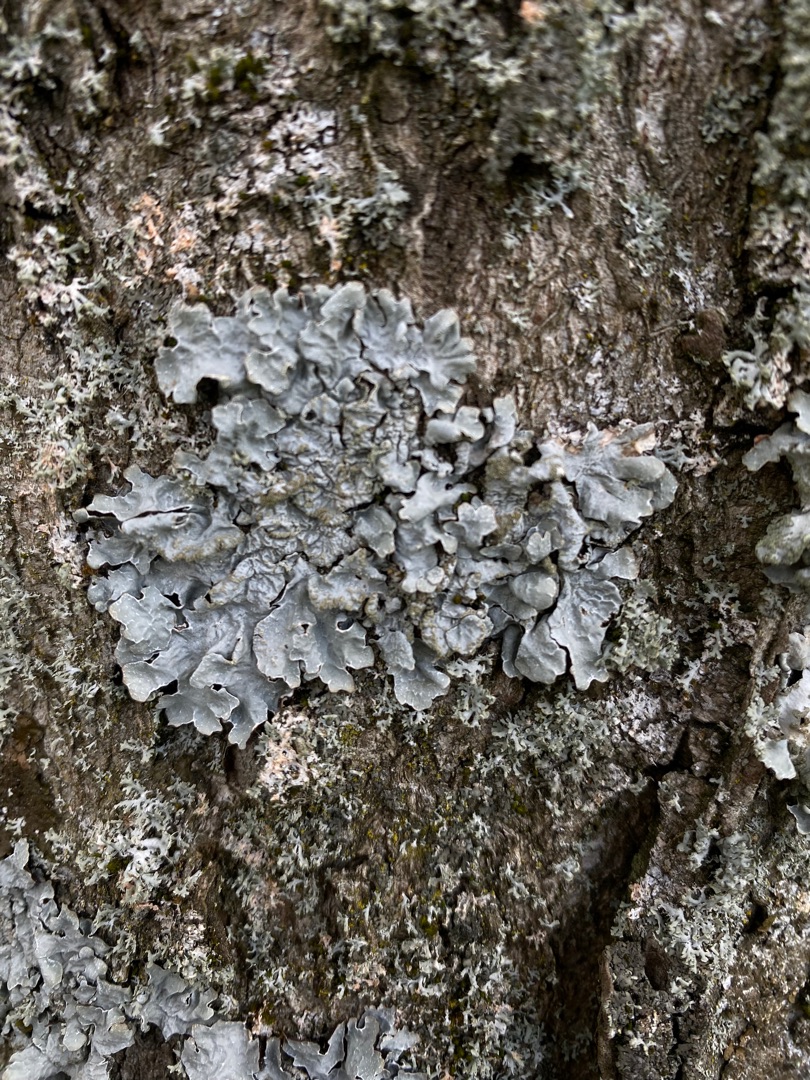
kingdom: Fungi
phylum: Ascomycota
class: Lecanoromycetes
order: Lecanorales
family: Parmeliaceae
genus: Parmelia
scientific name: Parmelia sulcata
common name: Rynket skållav
